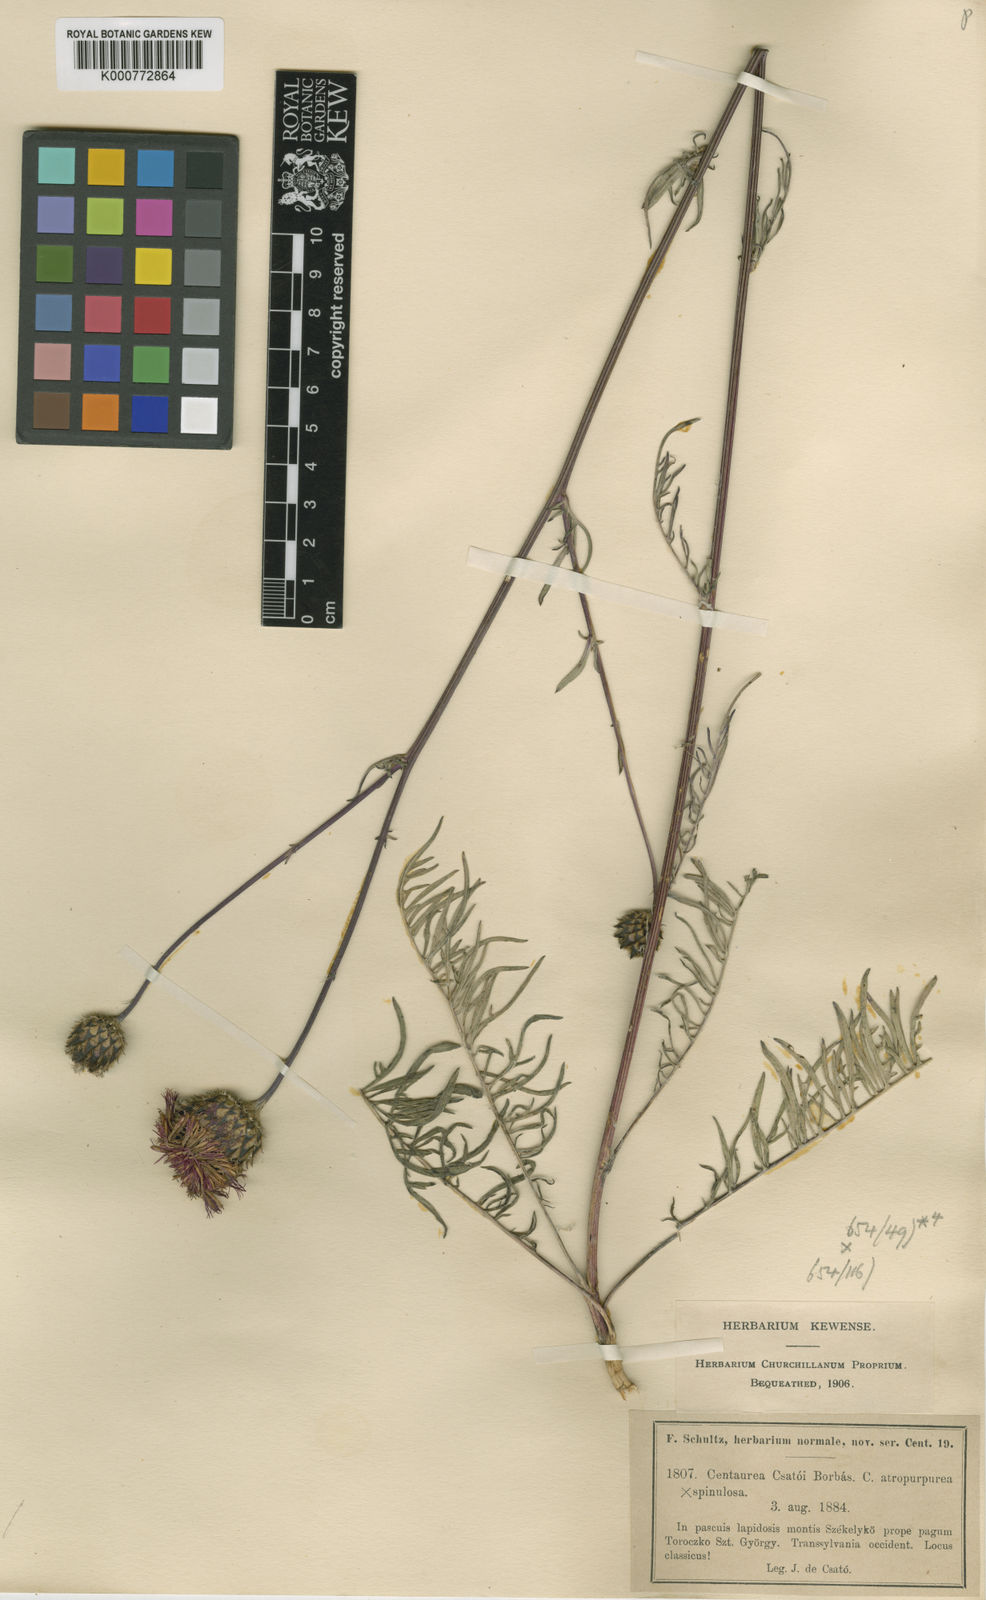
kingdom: Plantae
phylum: Tracheophyta
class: Magnoliopsida
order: Asterales
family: Asteraceae
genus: Centaurea
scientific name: Centaurea calocephala
